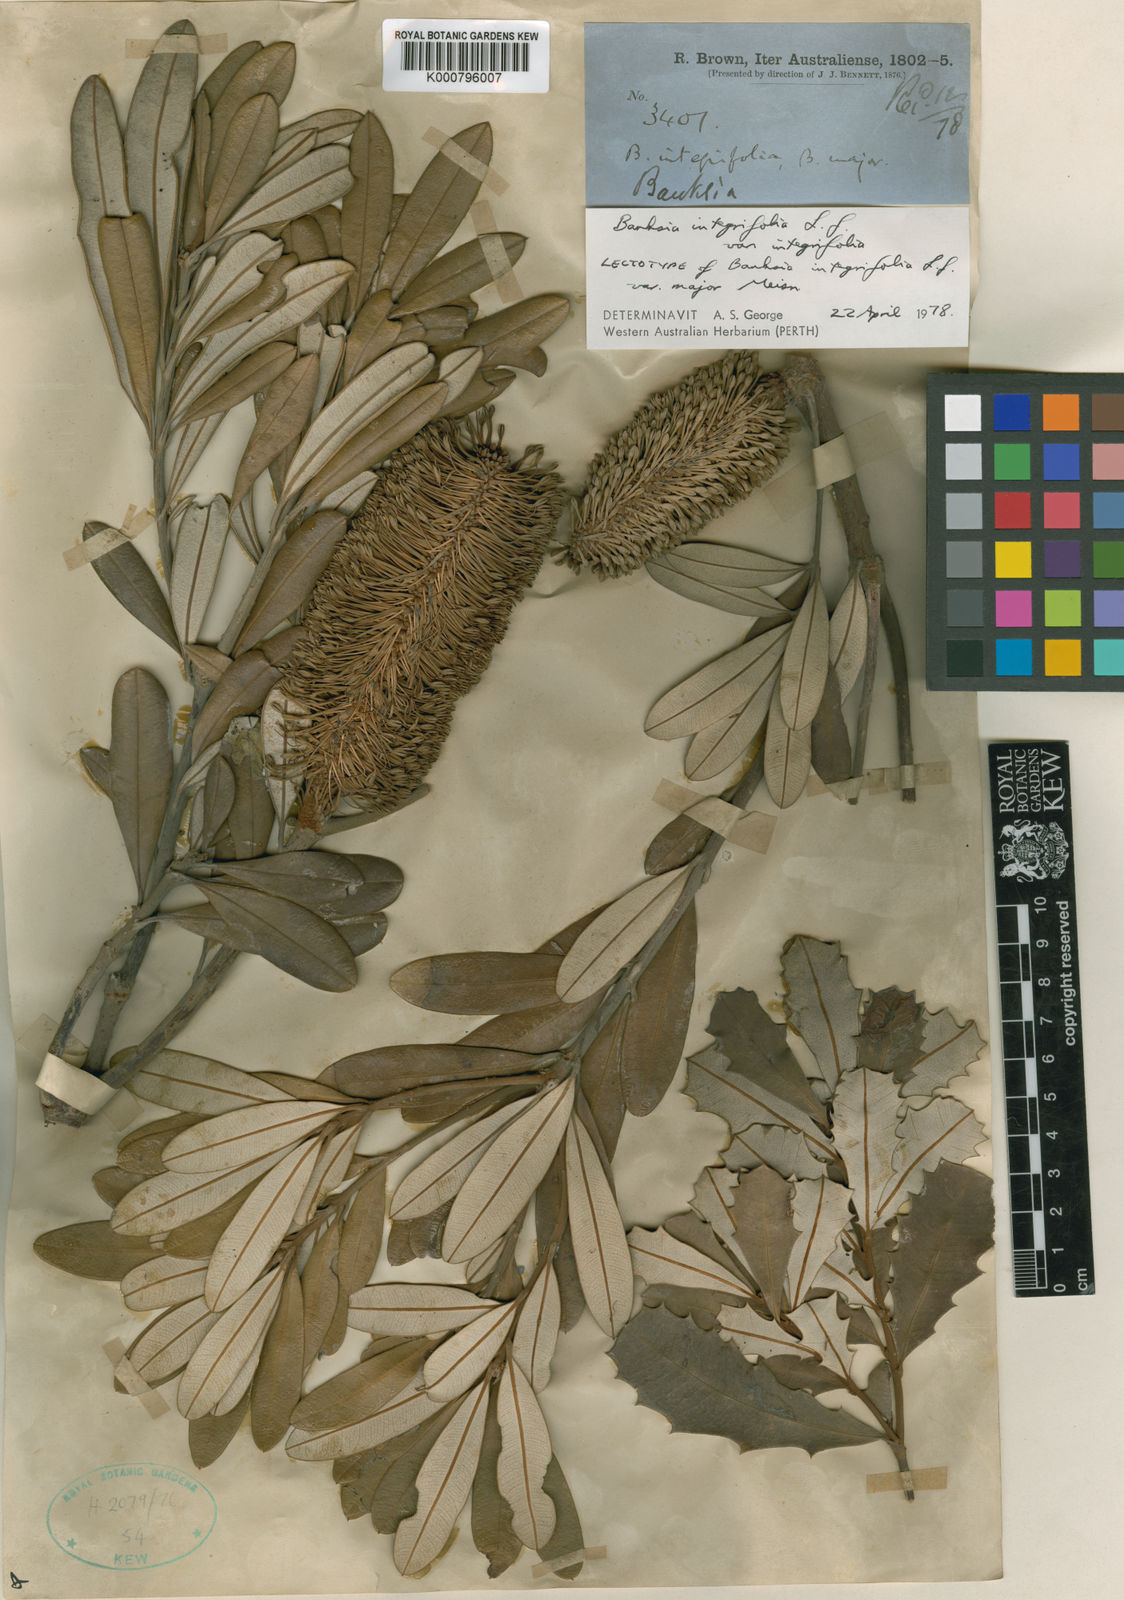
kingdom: Plantae
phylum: Tracheophyta
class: Magnoliopsida
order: Proteales
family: Proteaceae
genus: Banksia
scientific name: Banksia integrifolia
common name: White-honeysuckle
